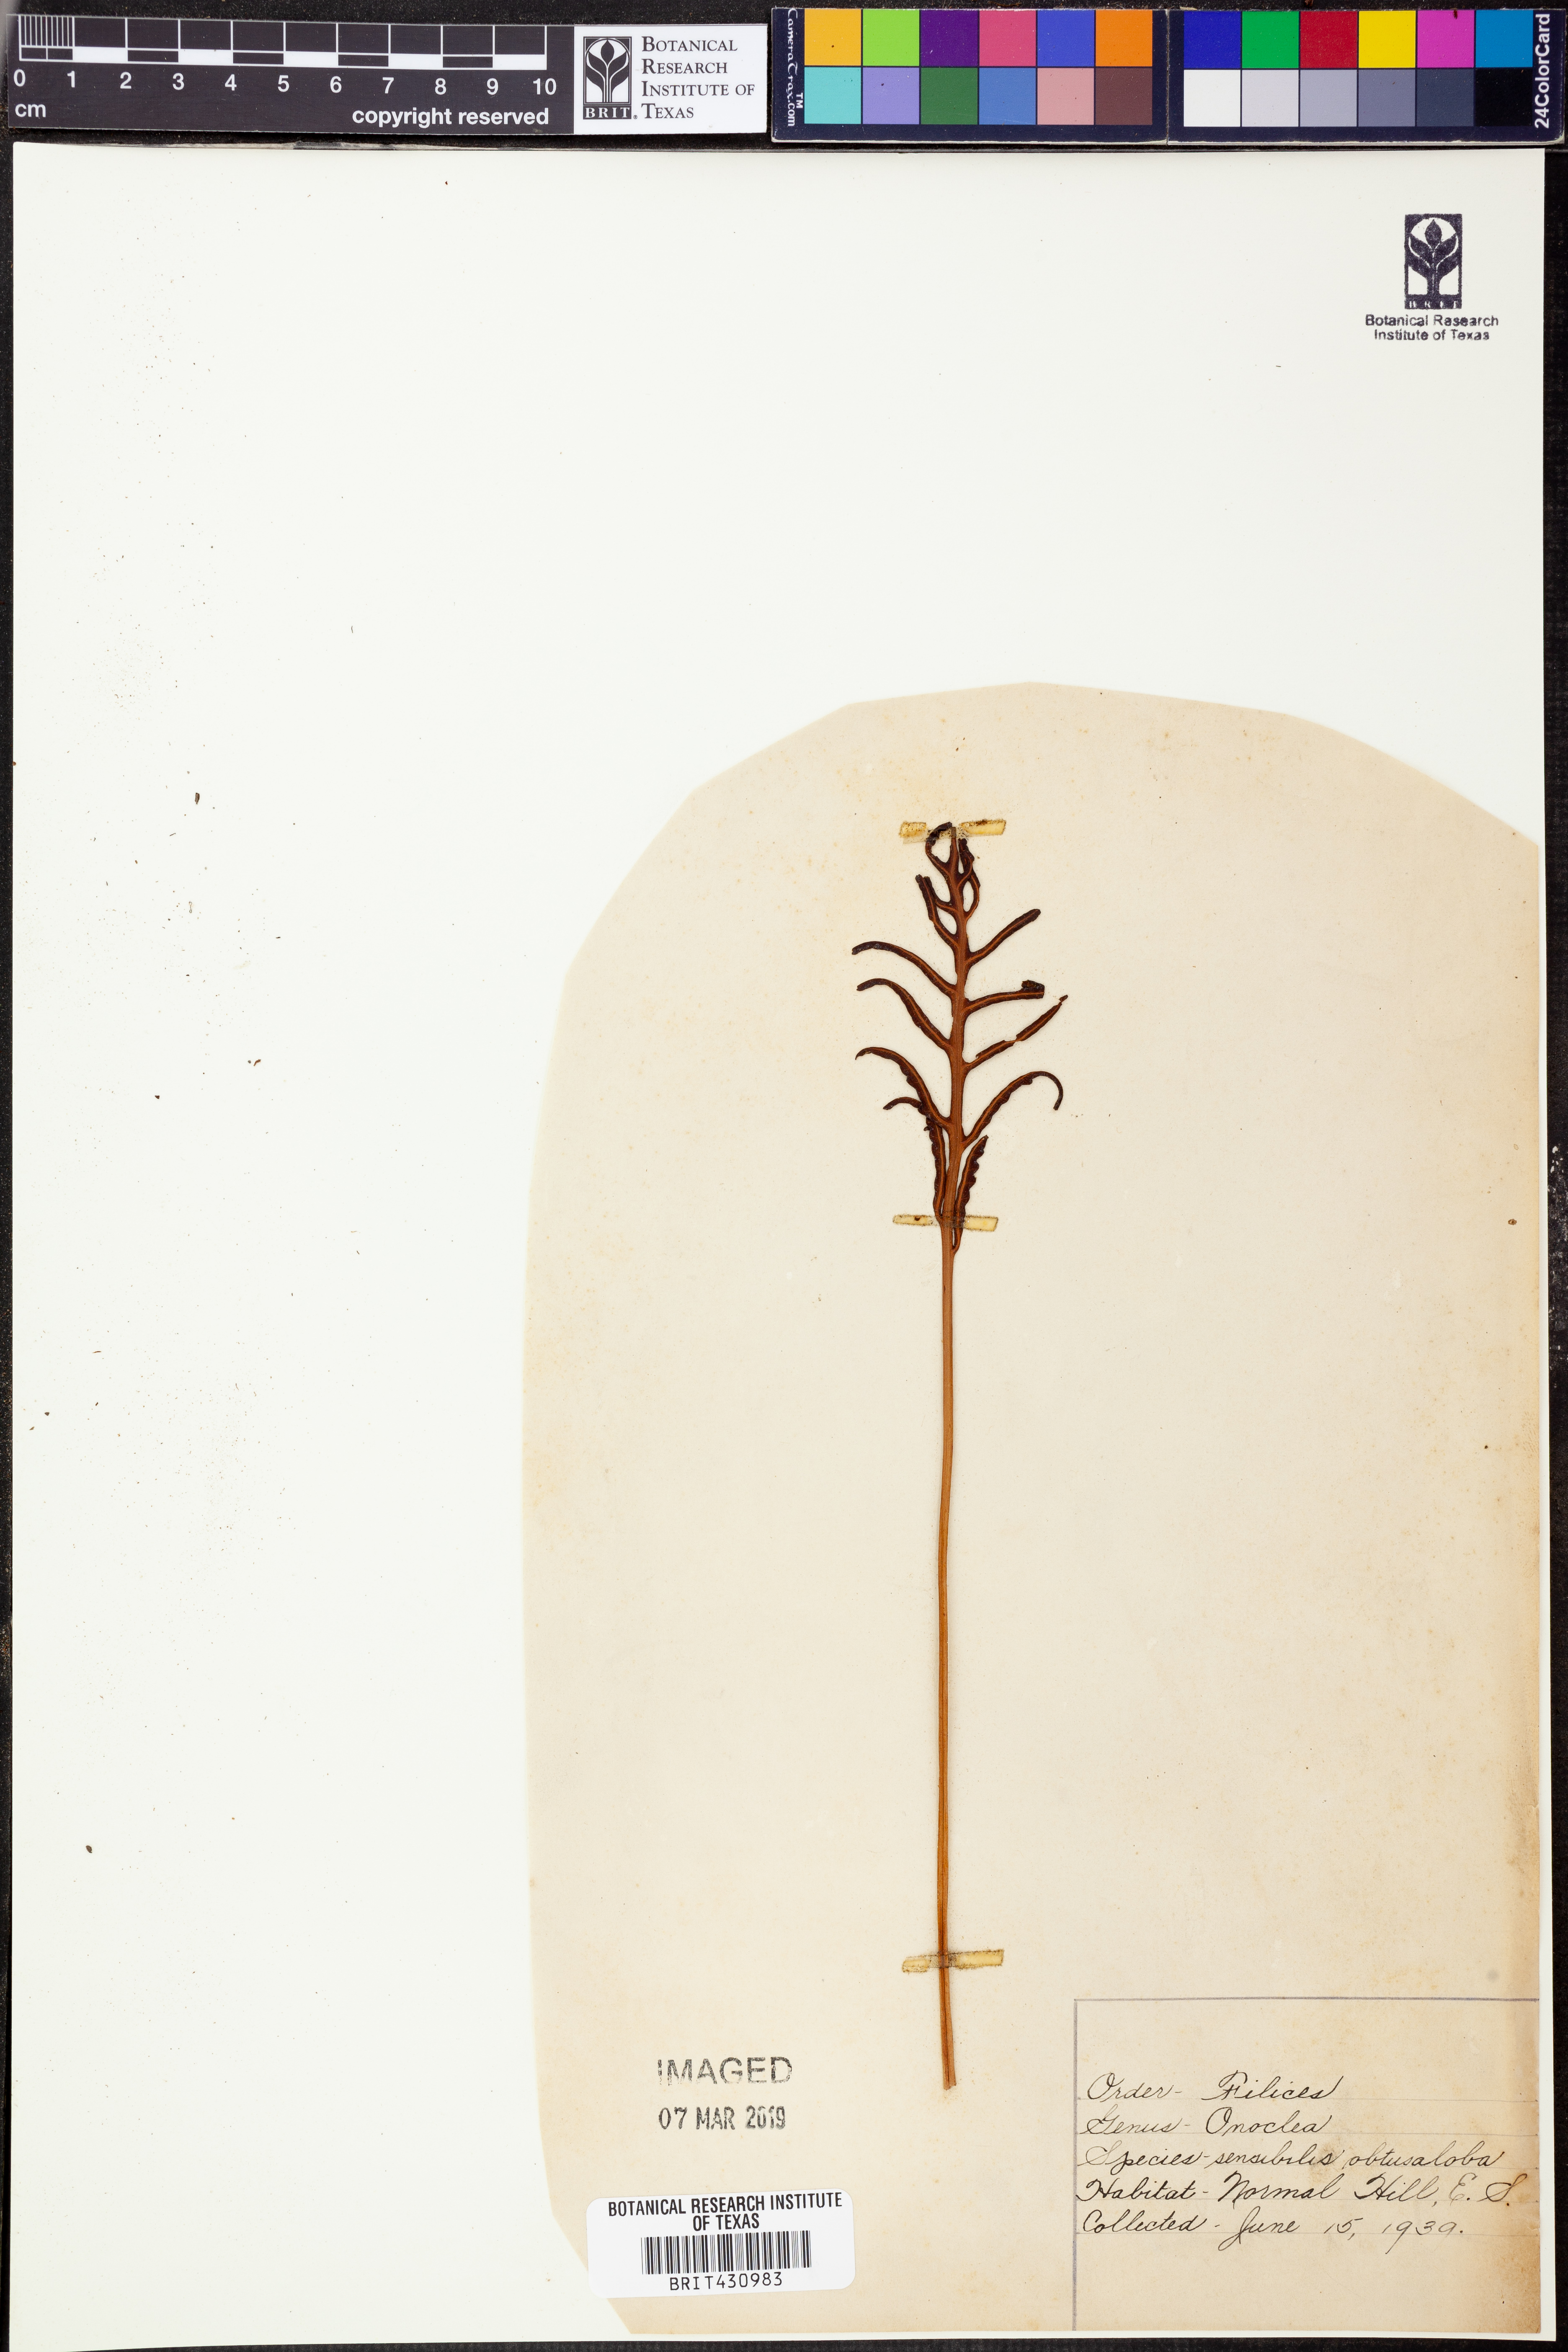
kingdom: Plantae
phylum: Tracheophyta
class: Polypodiopsida
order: Polypodiales
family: Onocleaceae
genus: Onoclea
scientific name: Onoclea sensibilis
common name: Sensitive fern
